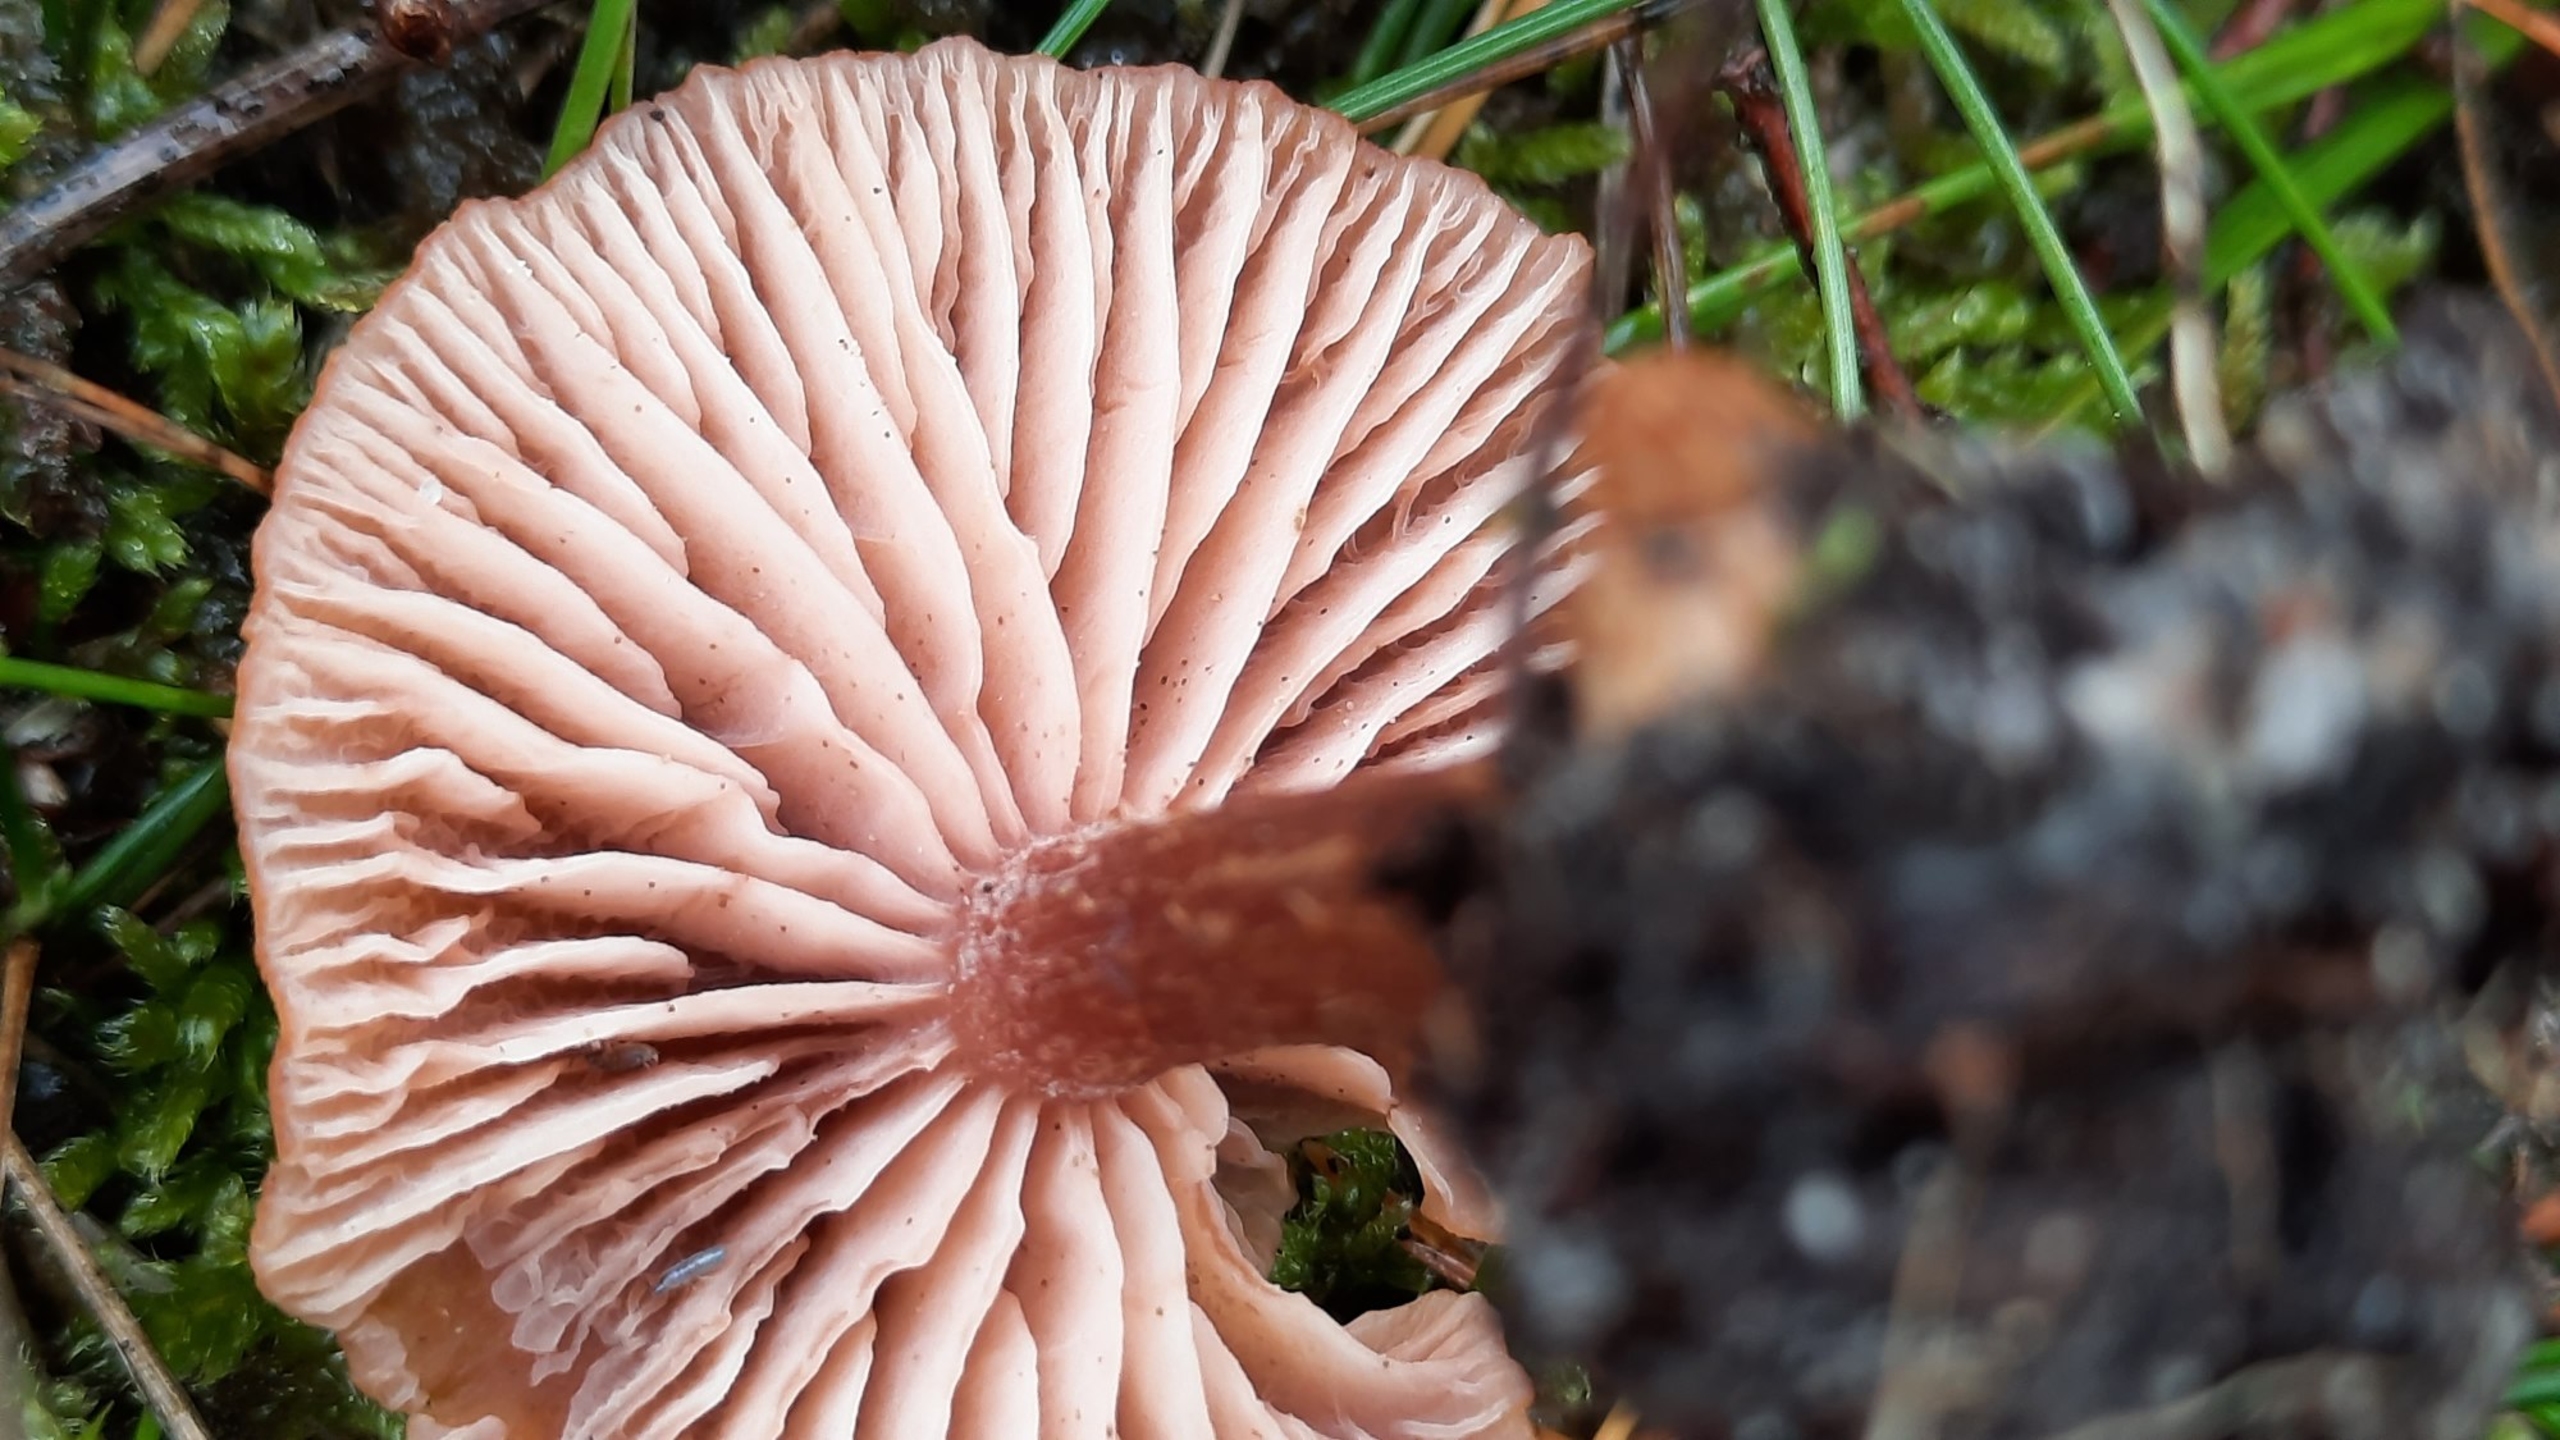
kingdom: Fungi
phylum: Basidiomycota
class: Agaricomycetes
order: Agaricales
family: Hydnangiaceae
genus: Laccaria
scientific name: Laccaria laccata
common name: Rød ametysthat
